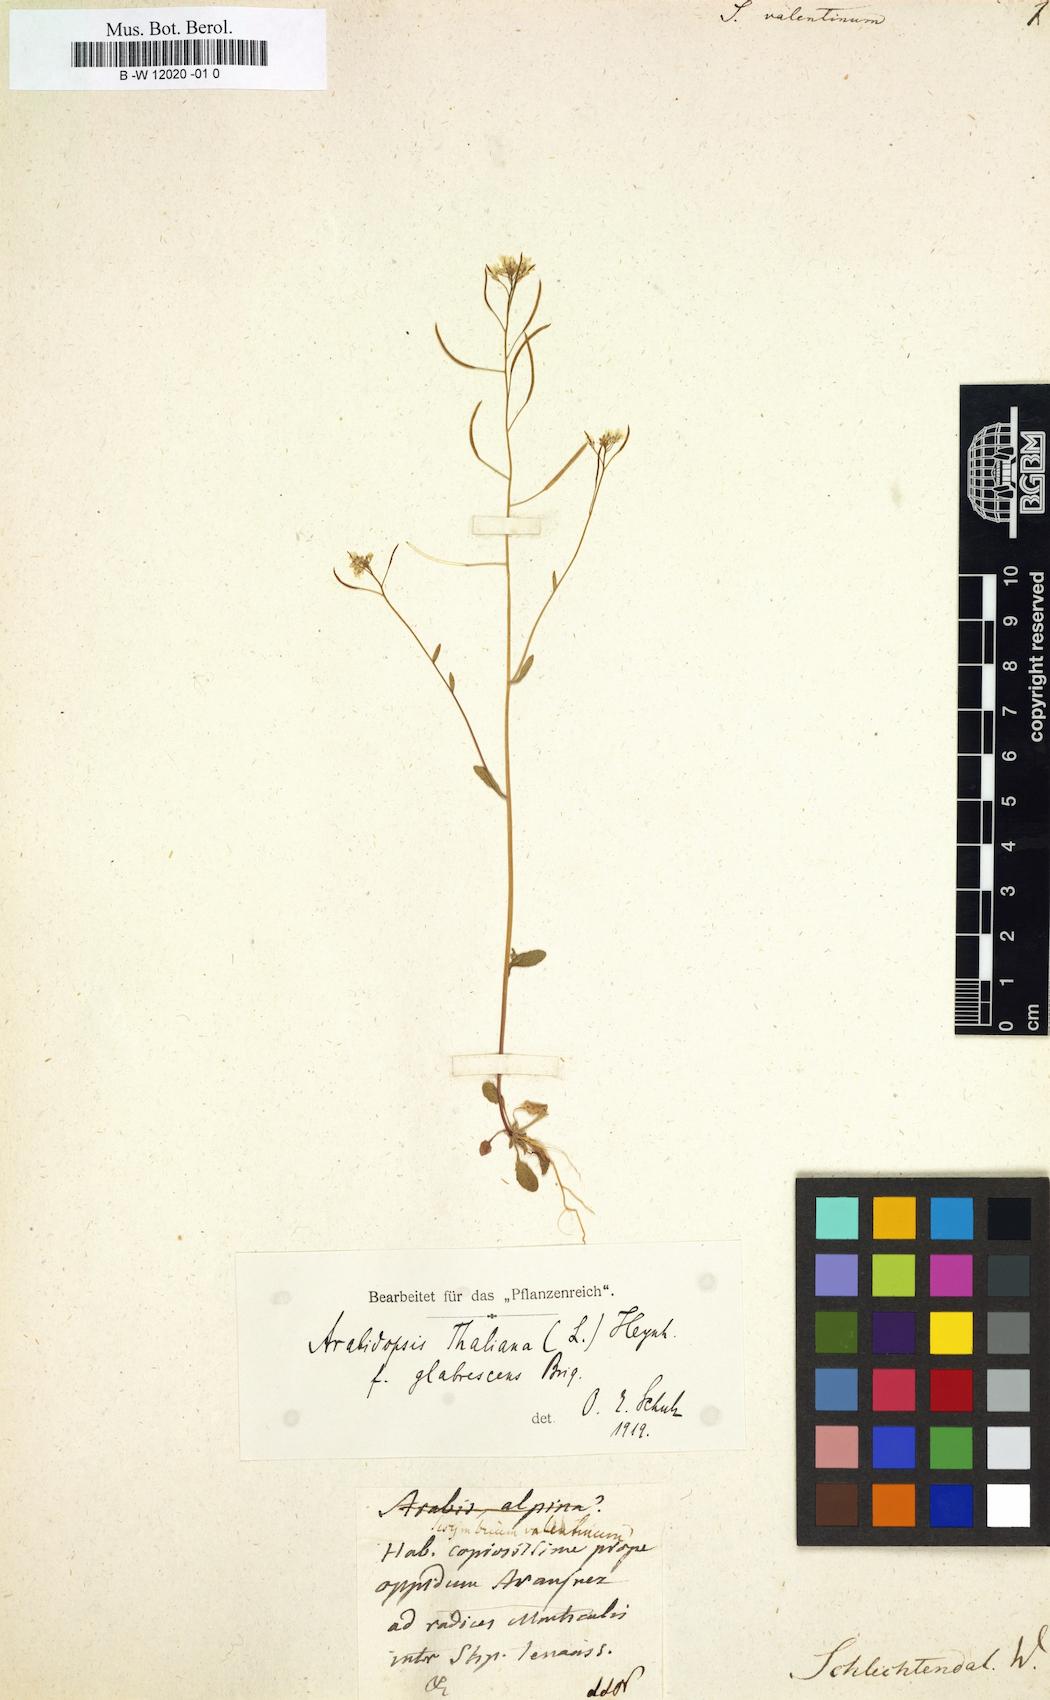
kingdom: Plantae
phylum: Tracheophyta
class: Magnoliopsida
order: Brassicales
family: Brassicaceae
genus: Biscutella
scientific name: Biscutella valentina
